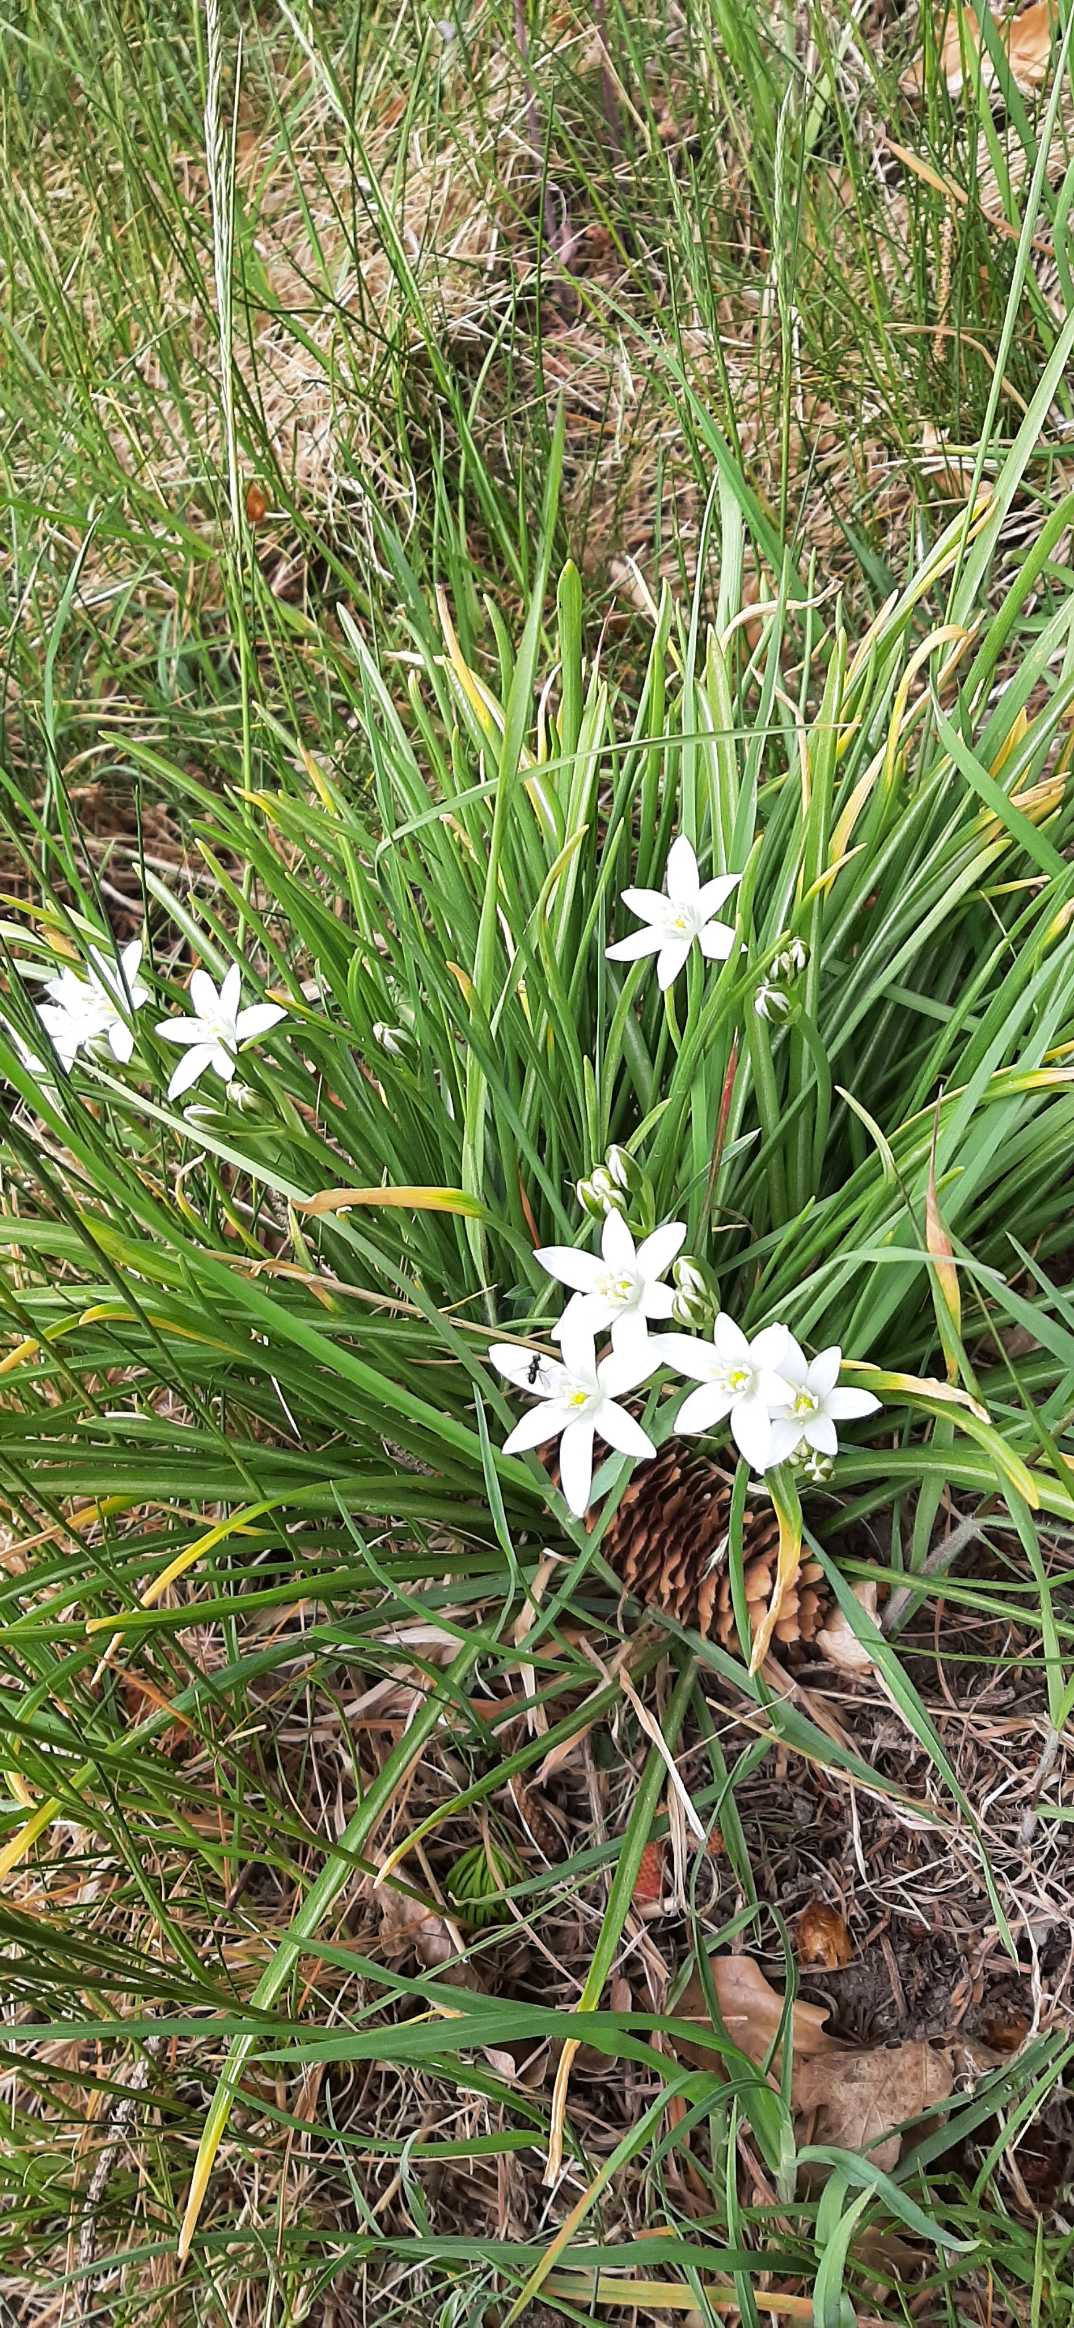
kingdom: Plantae
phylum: Tracheophyta
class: Liliopsida
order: Asparagales
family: Asparagaceae
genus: Ornithogalum
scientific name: Ornithogalum umbellatum
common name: Kost-fuglemælk
